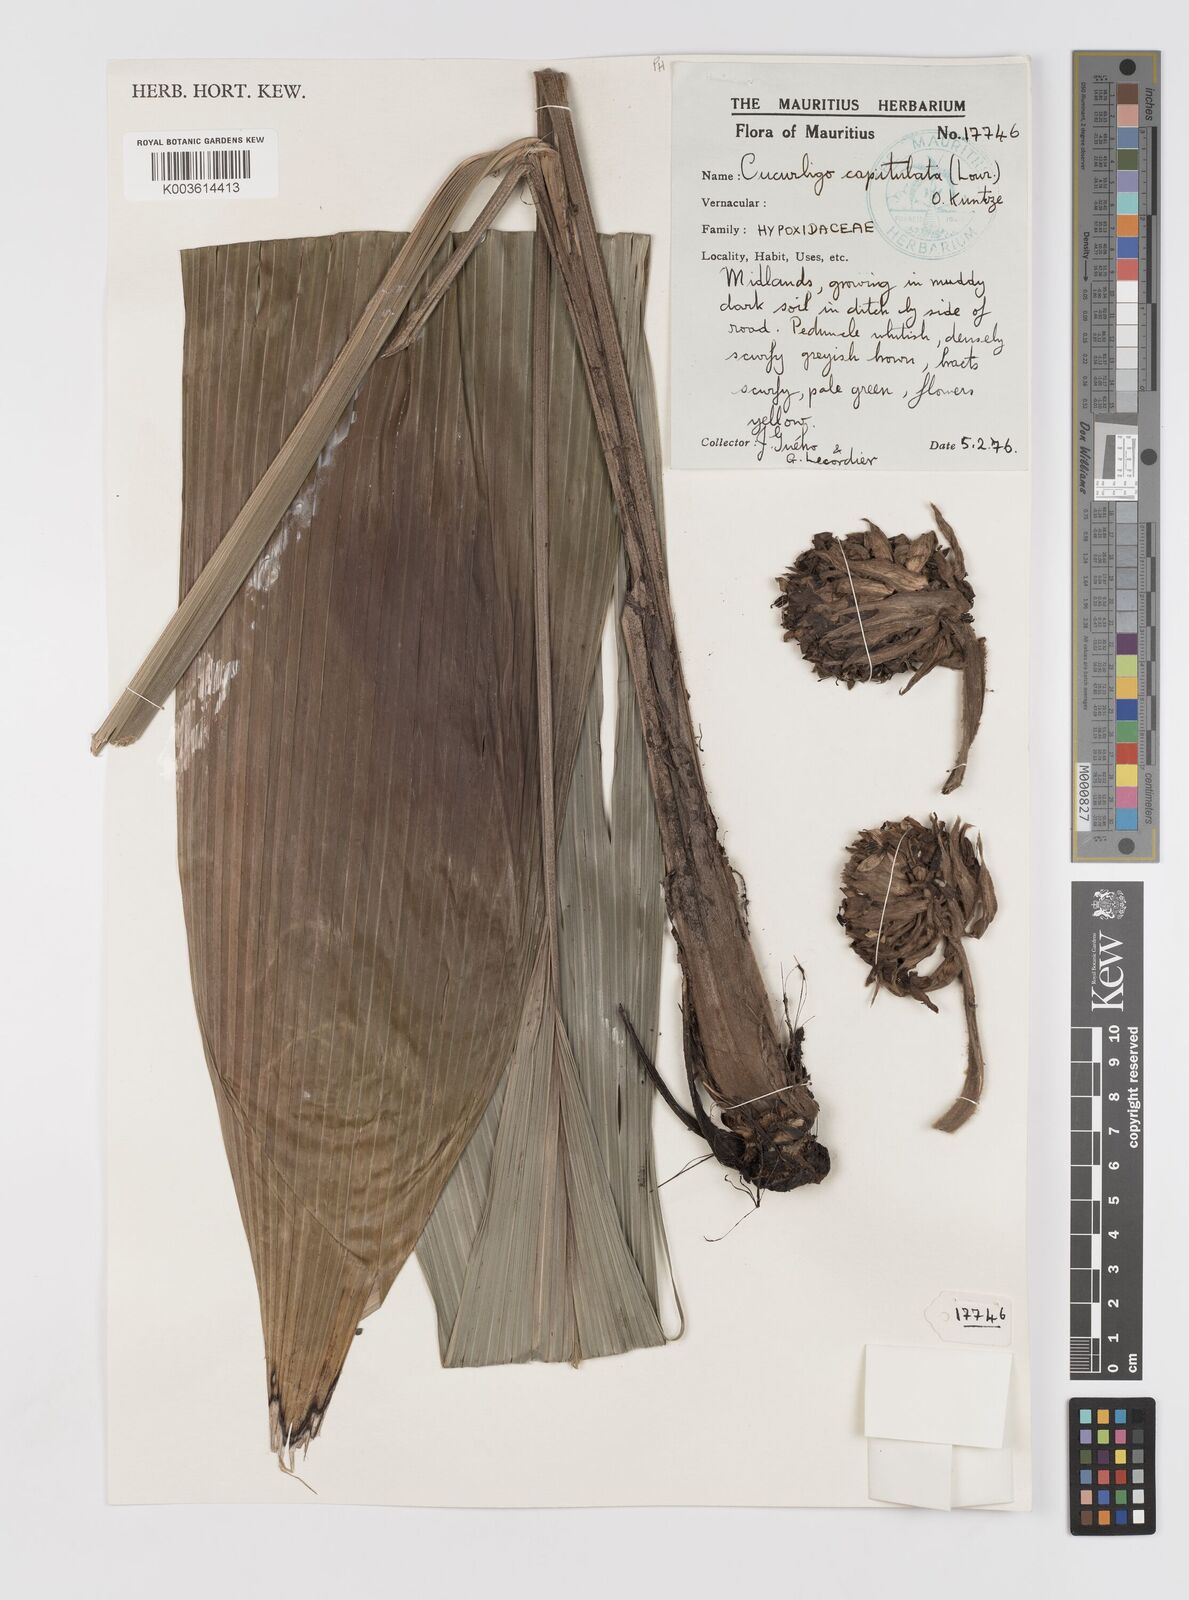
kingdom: Plantae
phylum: Tracheophyta
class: Liliopsida
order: Asparagales
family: Hypoxidaceae
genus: Curculigo
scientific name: Curculigo capitulata
